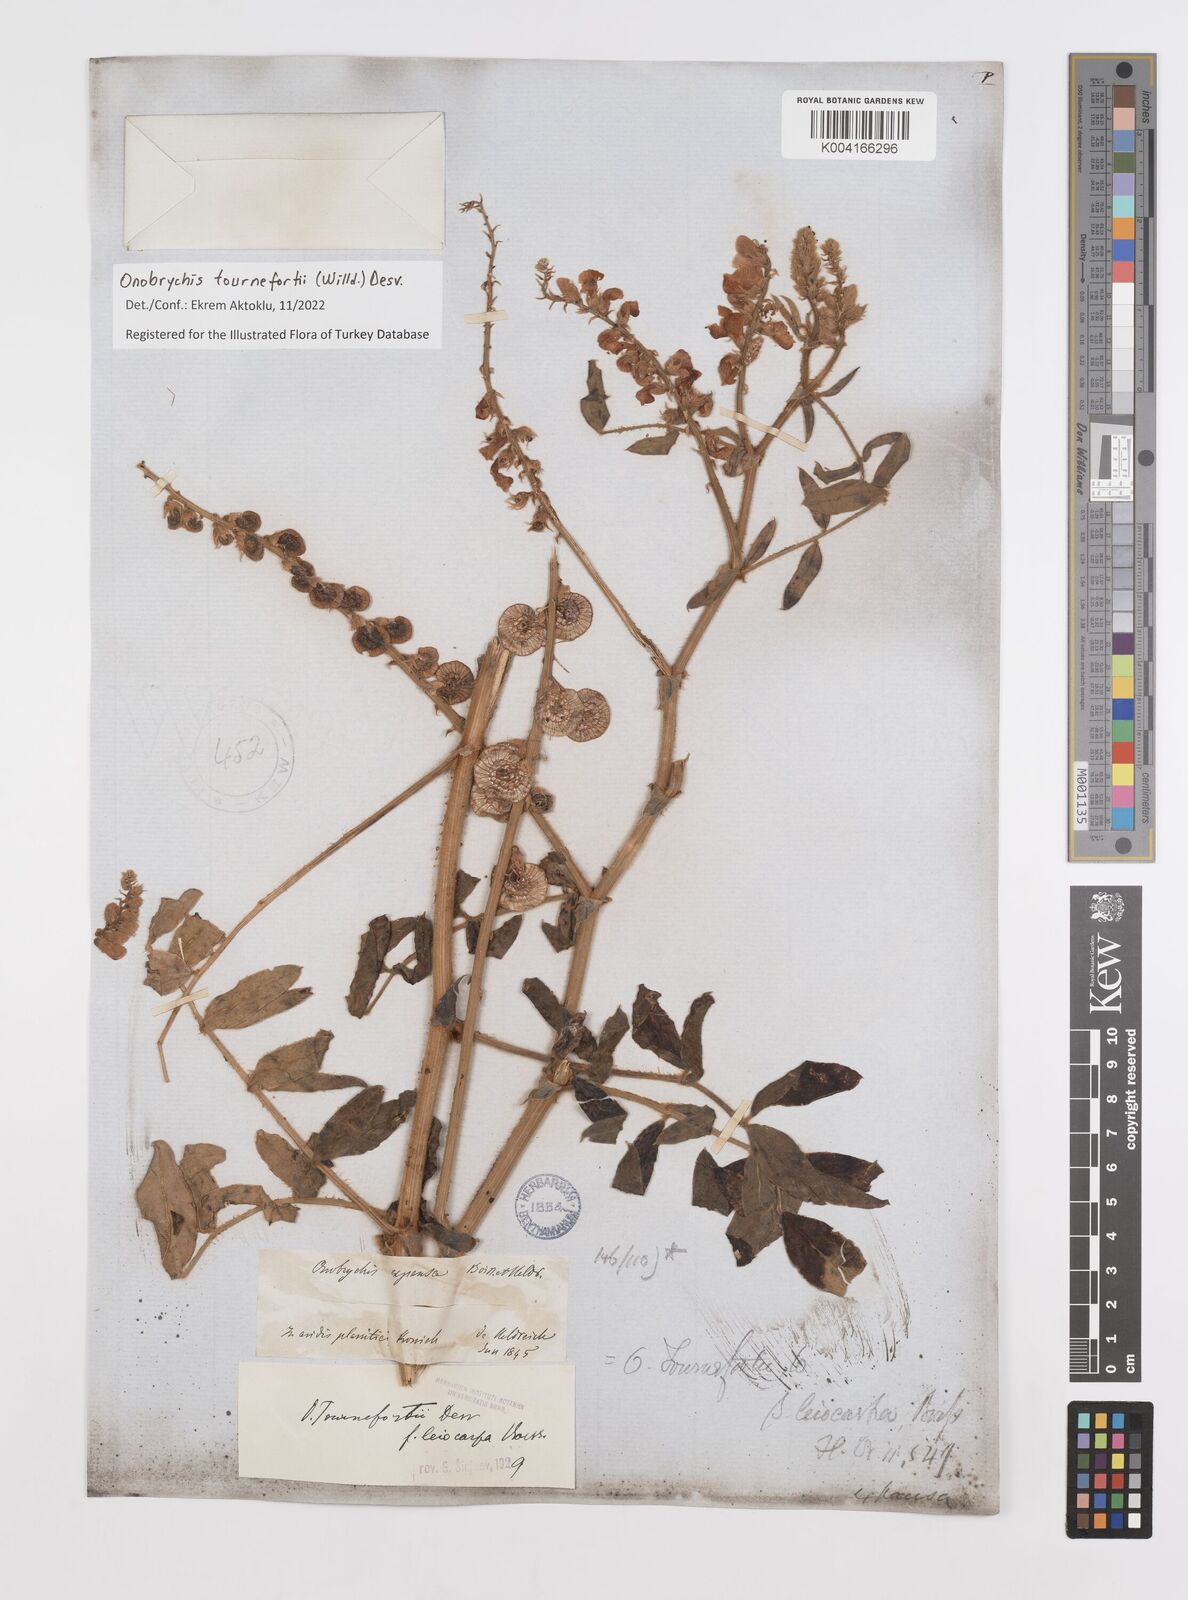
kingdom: Plantae
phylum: Tracheophyta
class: Magnoliopsida
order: Fabales
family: Fabaceae
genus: Onobrychis
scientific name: Onobrychis tournefortii
